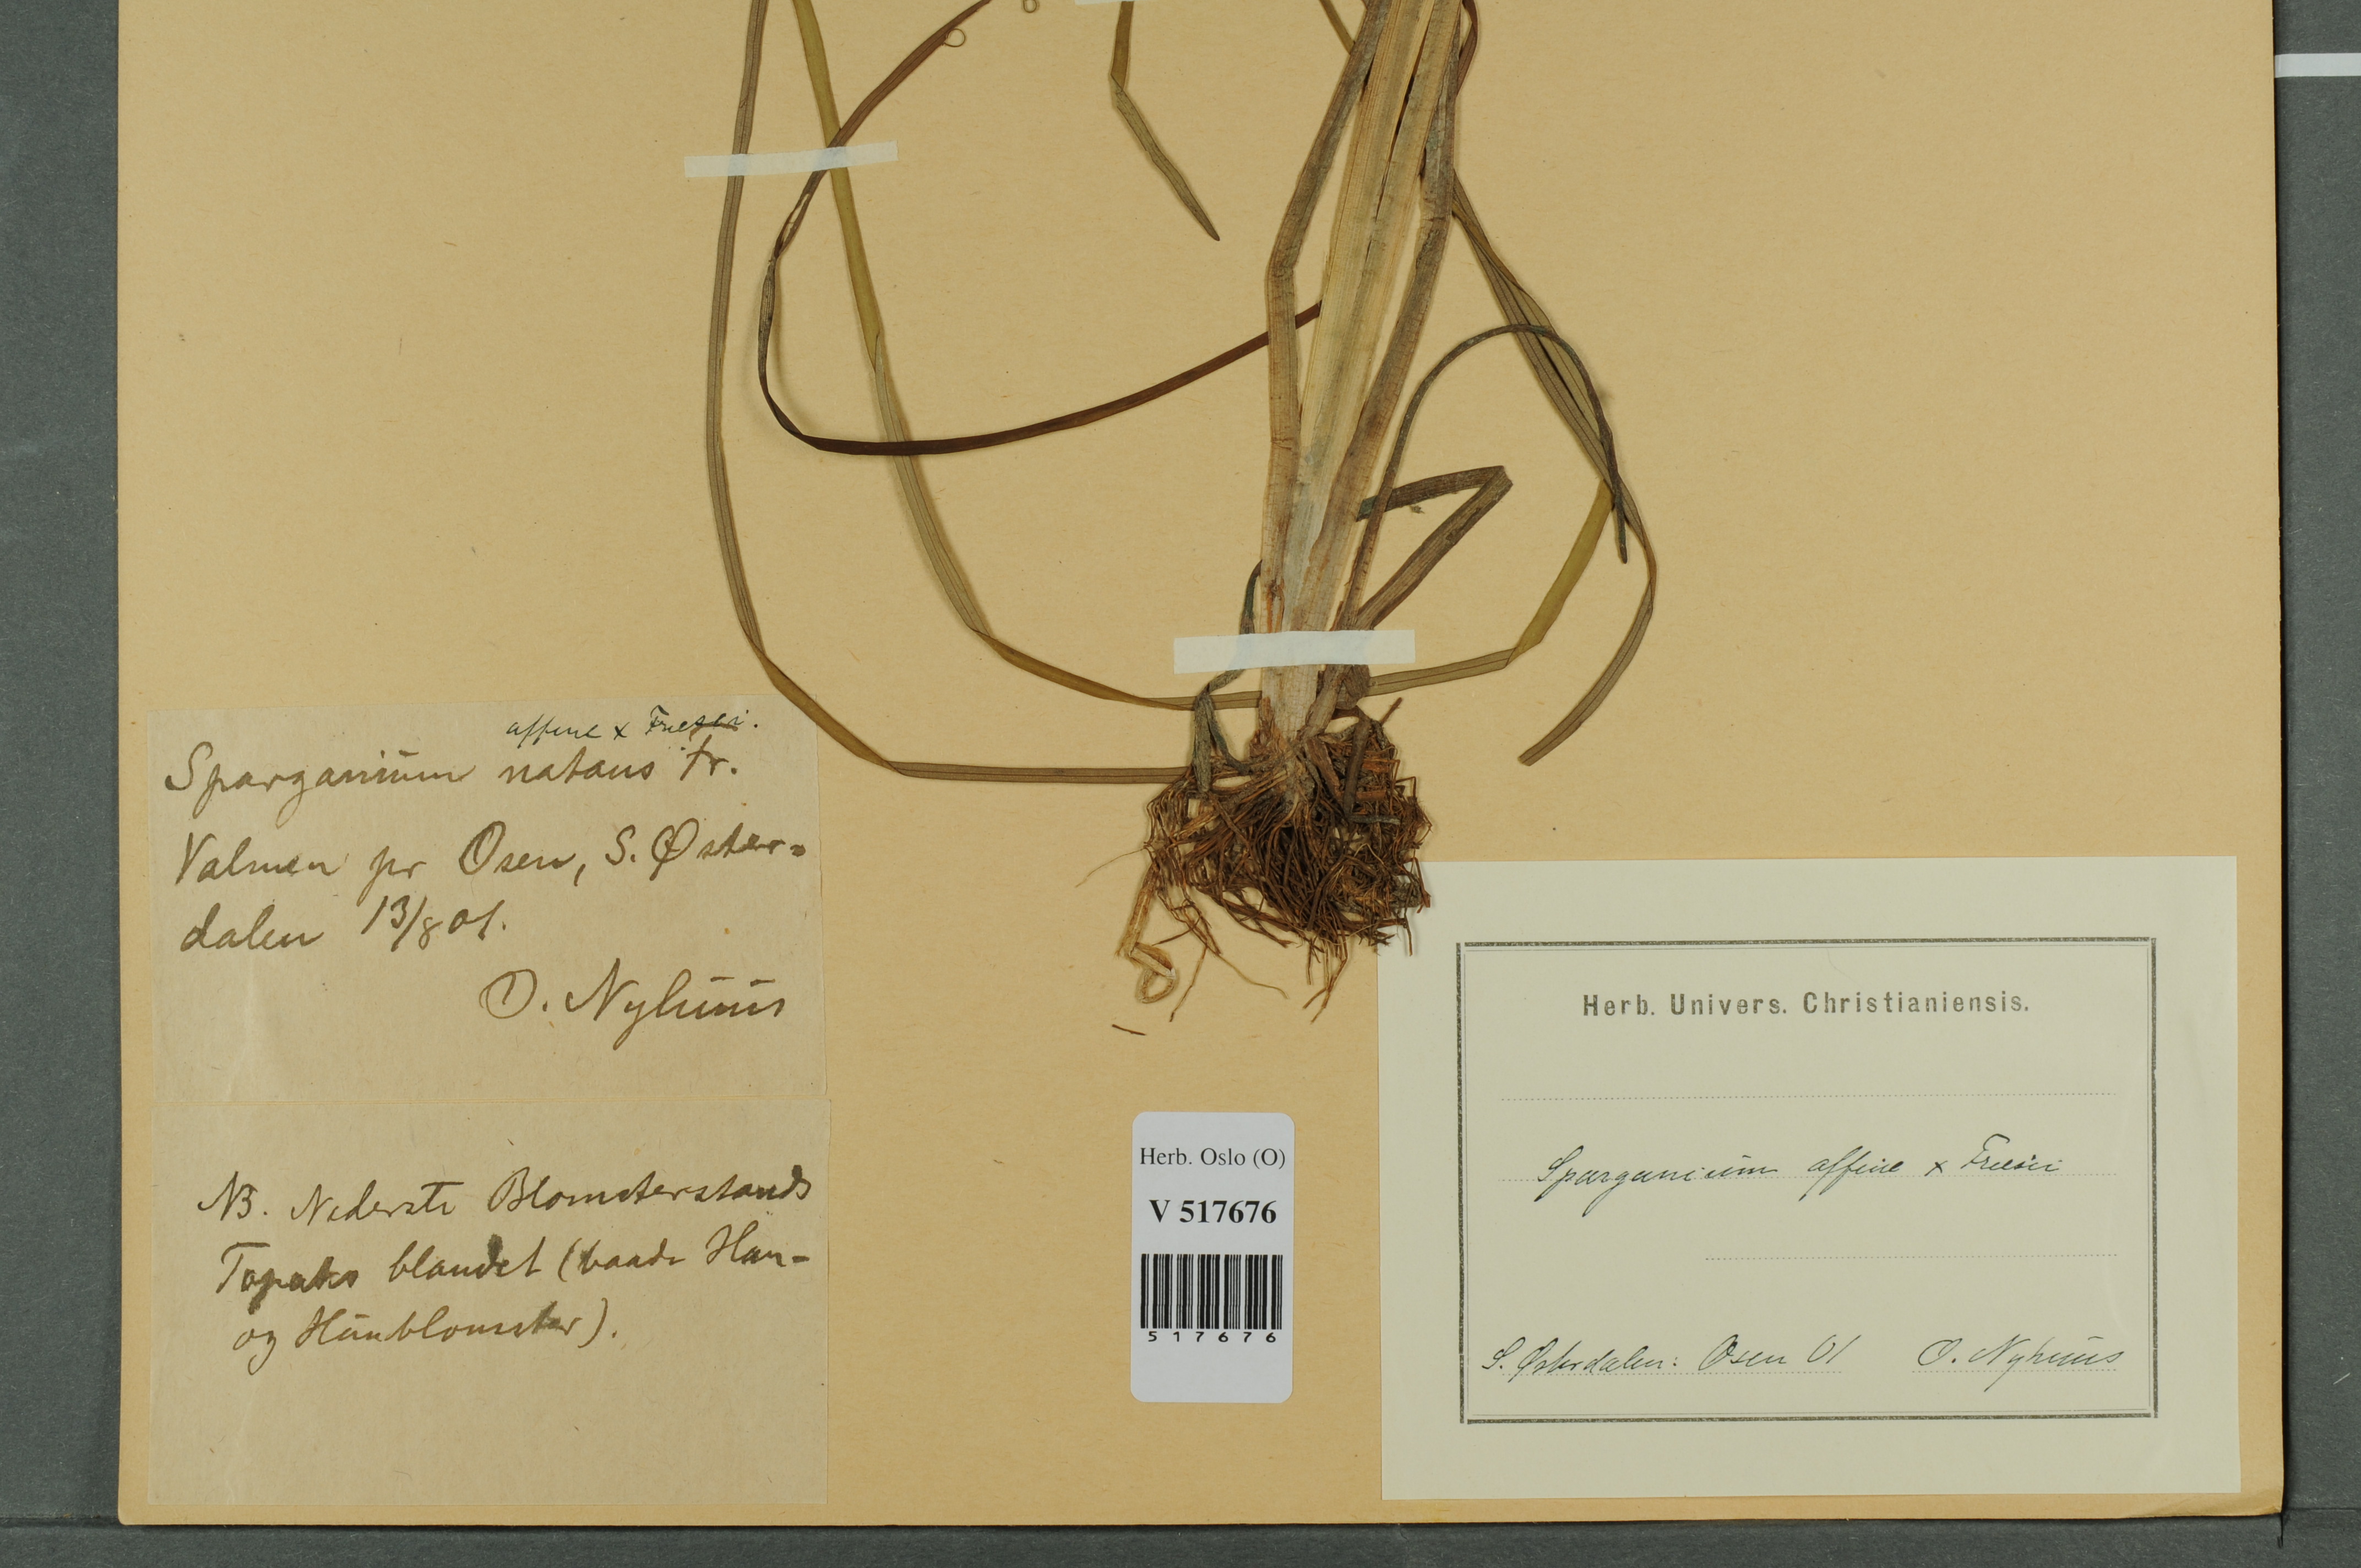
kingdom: Plantae
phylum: Tracheophyta
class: Liliopsida
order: Poales
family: Typhaceae
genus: Sparganium
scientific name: Sparganium
